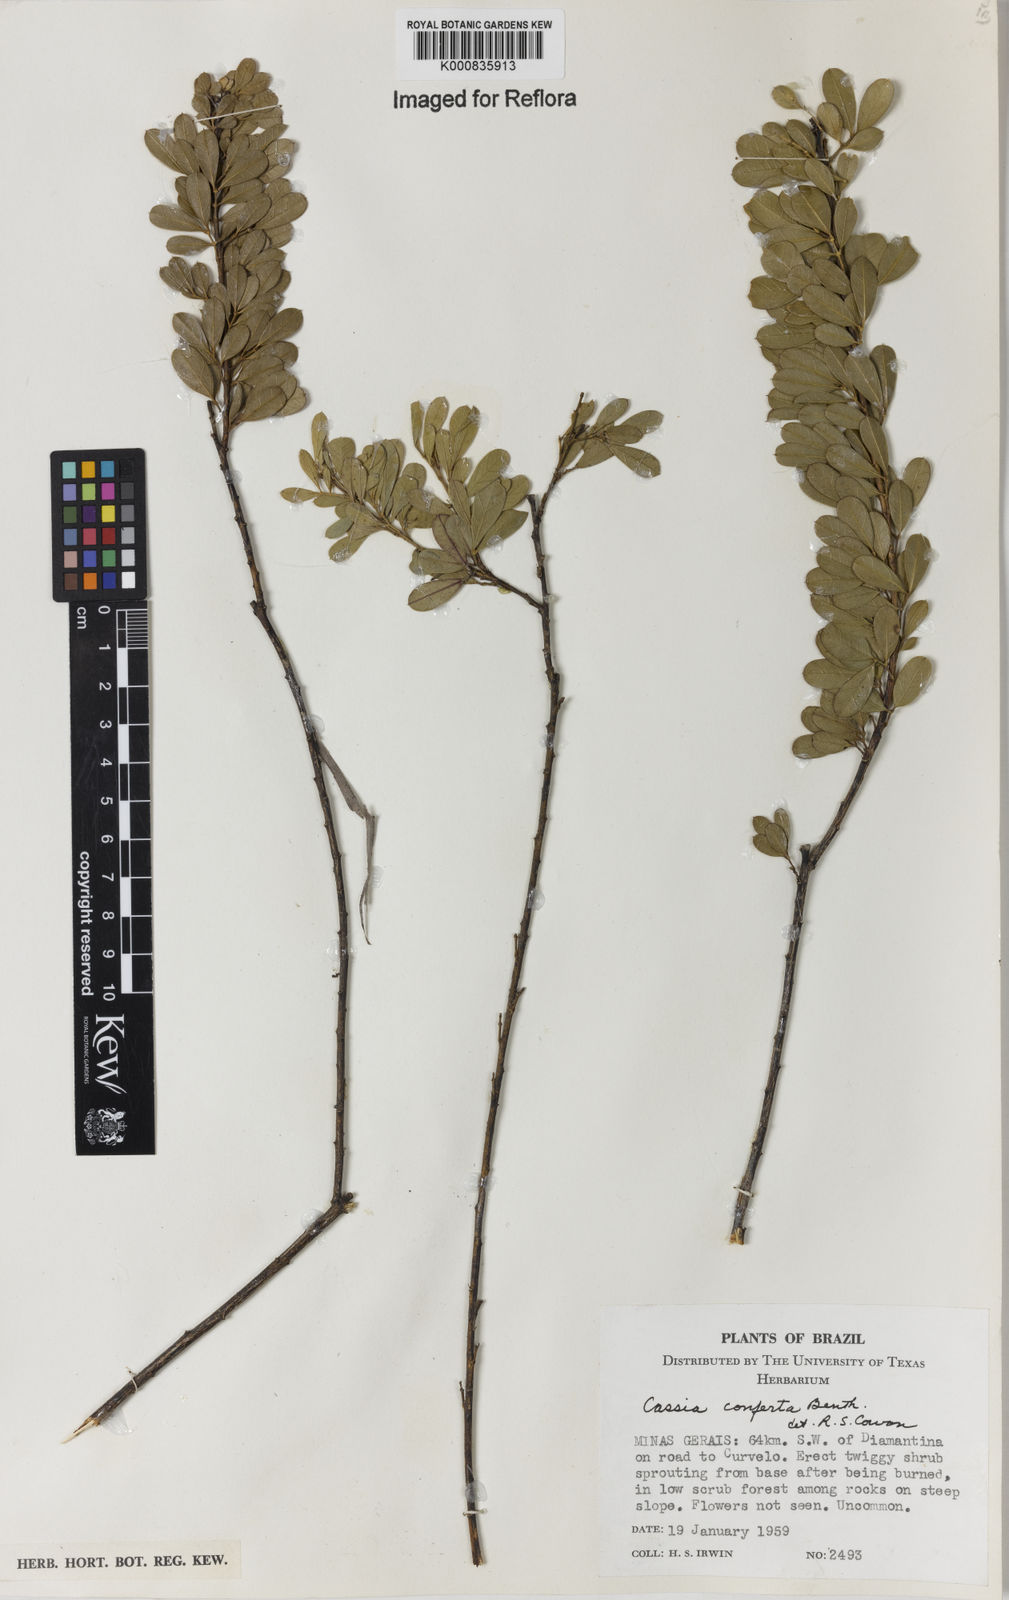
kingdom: Plantae
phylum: Tracheophyta
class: Magnoliopsida
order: Fabales
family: Fabaceae
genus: Chamaecrista
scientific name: Chamaecrista conferta
